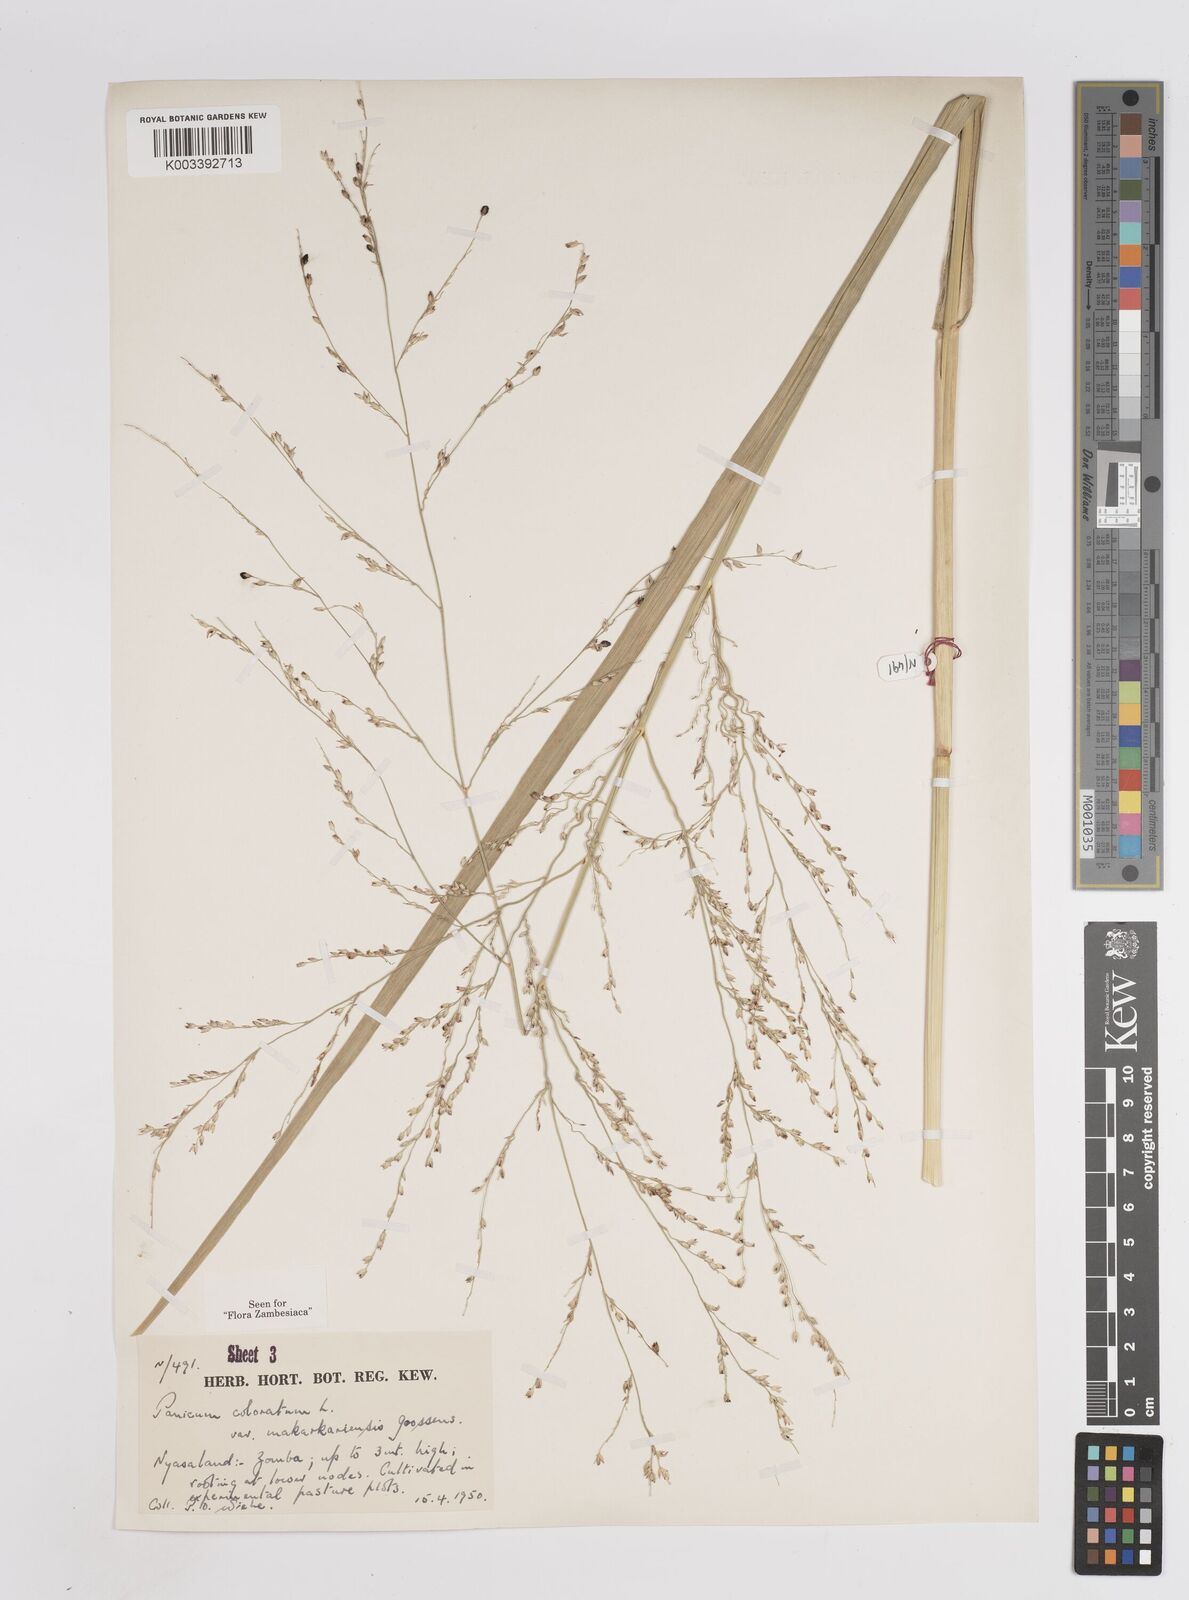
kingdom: Plantae
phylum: Tracheophyta
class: Liliopsida
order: Poales
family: Poaceae
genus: Panicum
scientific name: Panicum coloratum
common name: Kleingrass
